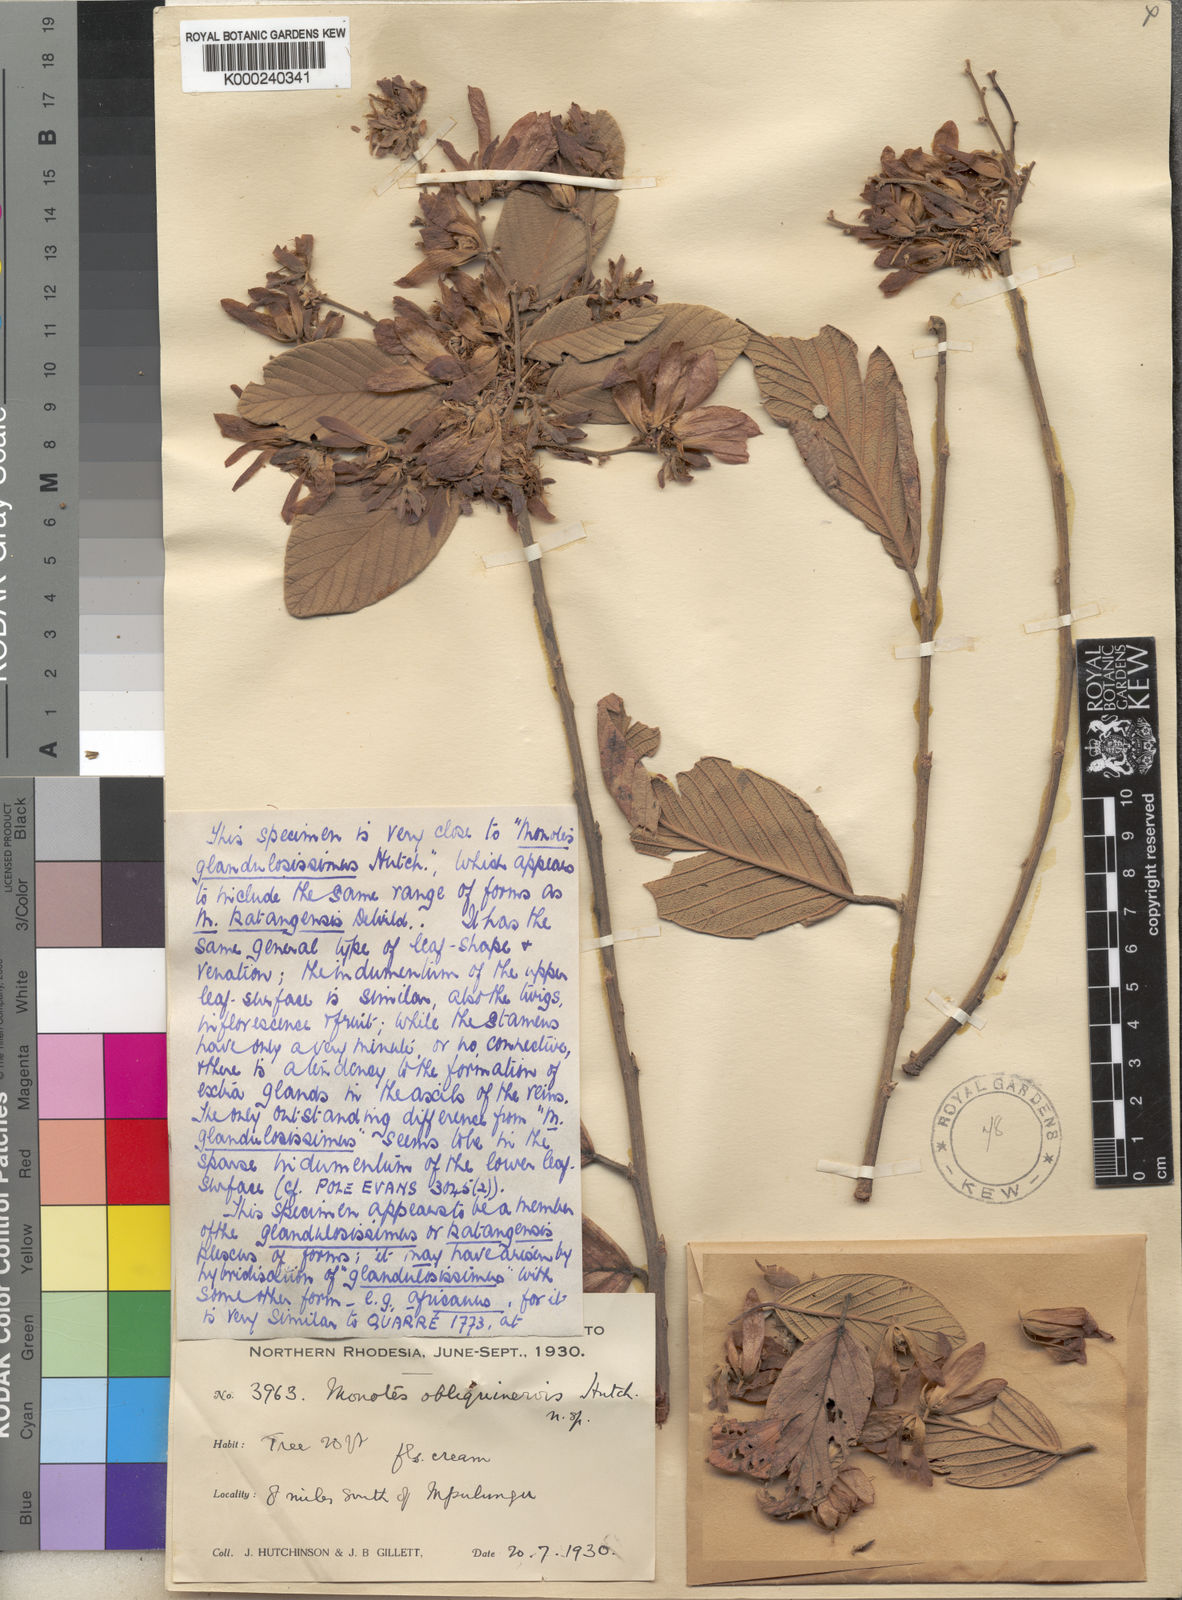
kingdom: Plantae
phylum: Tracheophyta
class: Magnoliopsida
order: Malvales
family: Dipterocarpaceae
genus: Monotes
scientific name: Monotes katangensis
